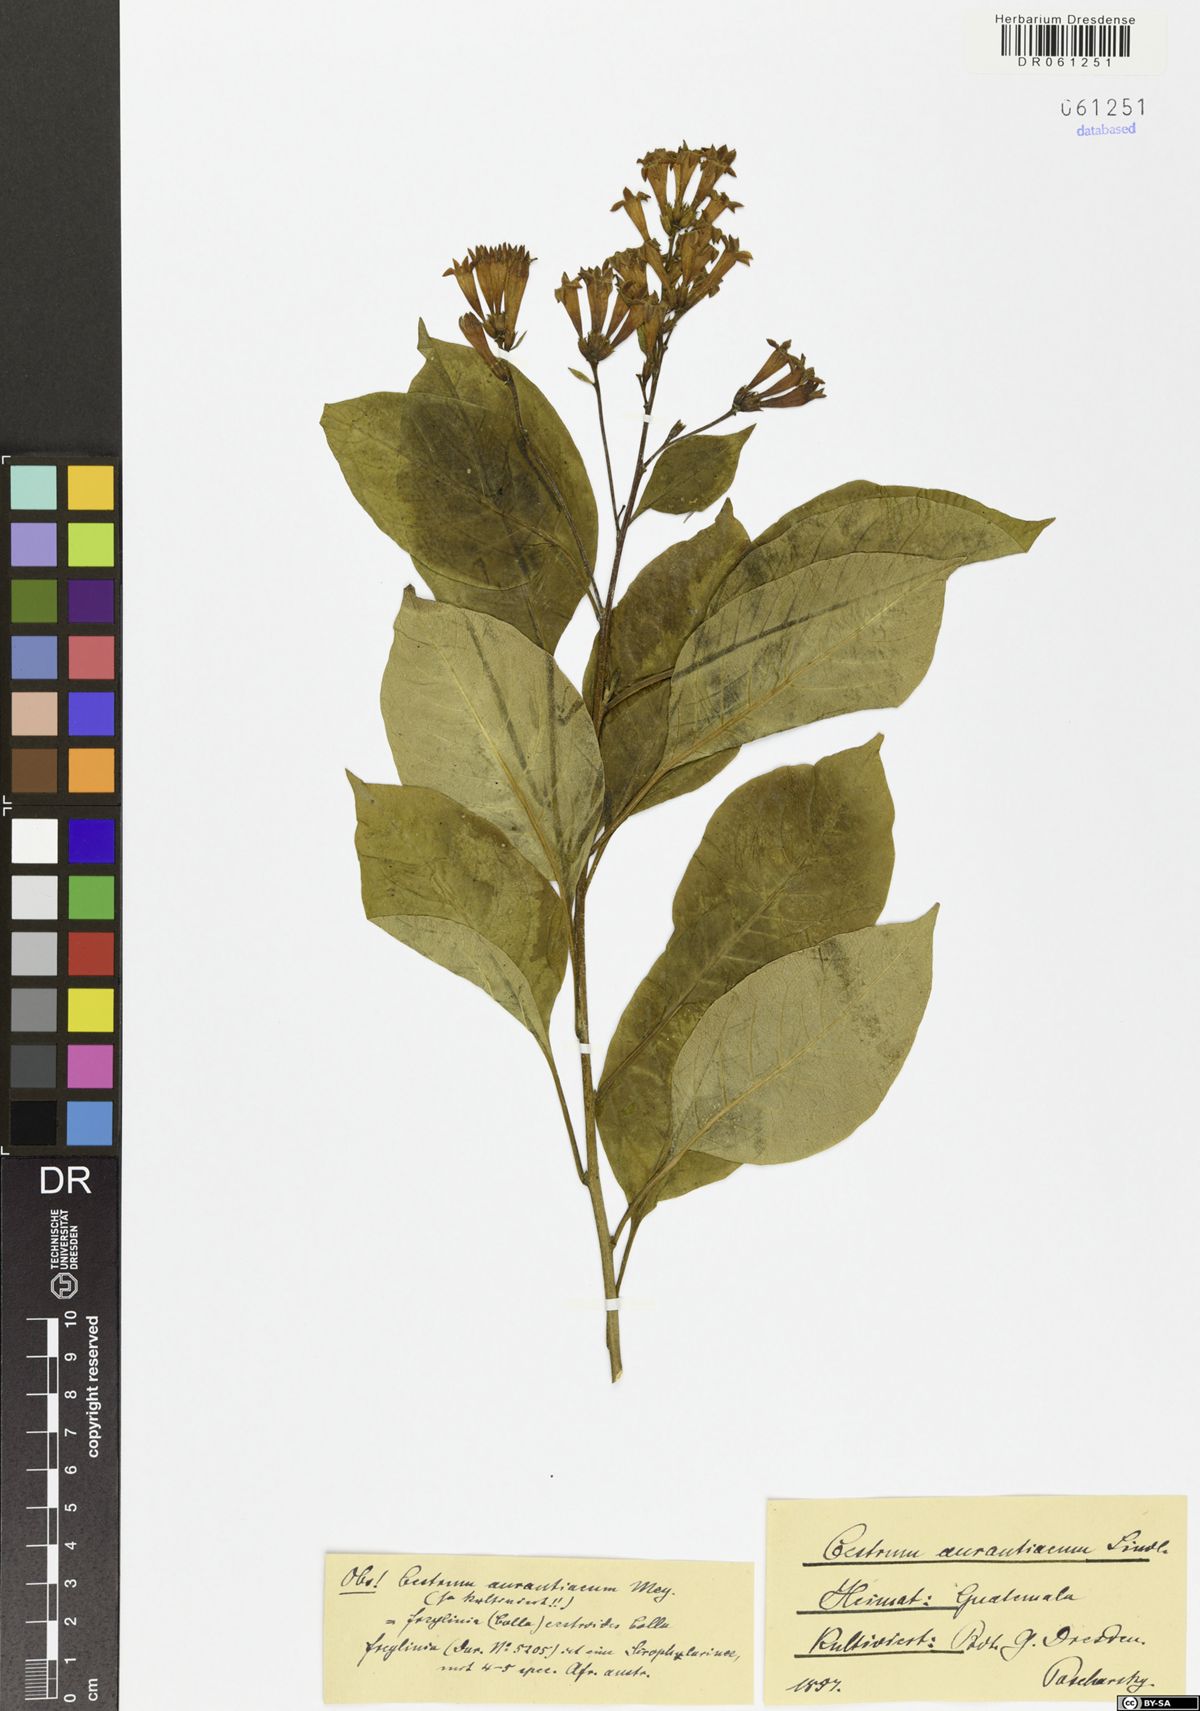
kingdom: Plantae
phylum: Tracheophyta
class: Magnoliopsida
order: Solanales
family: Solanaceae
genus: Cestrum
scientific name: Cestrum aurantiacum
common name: Orange cestrum
